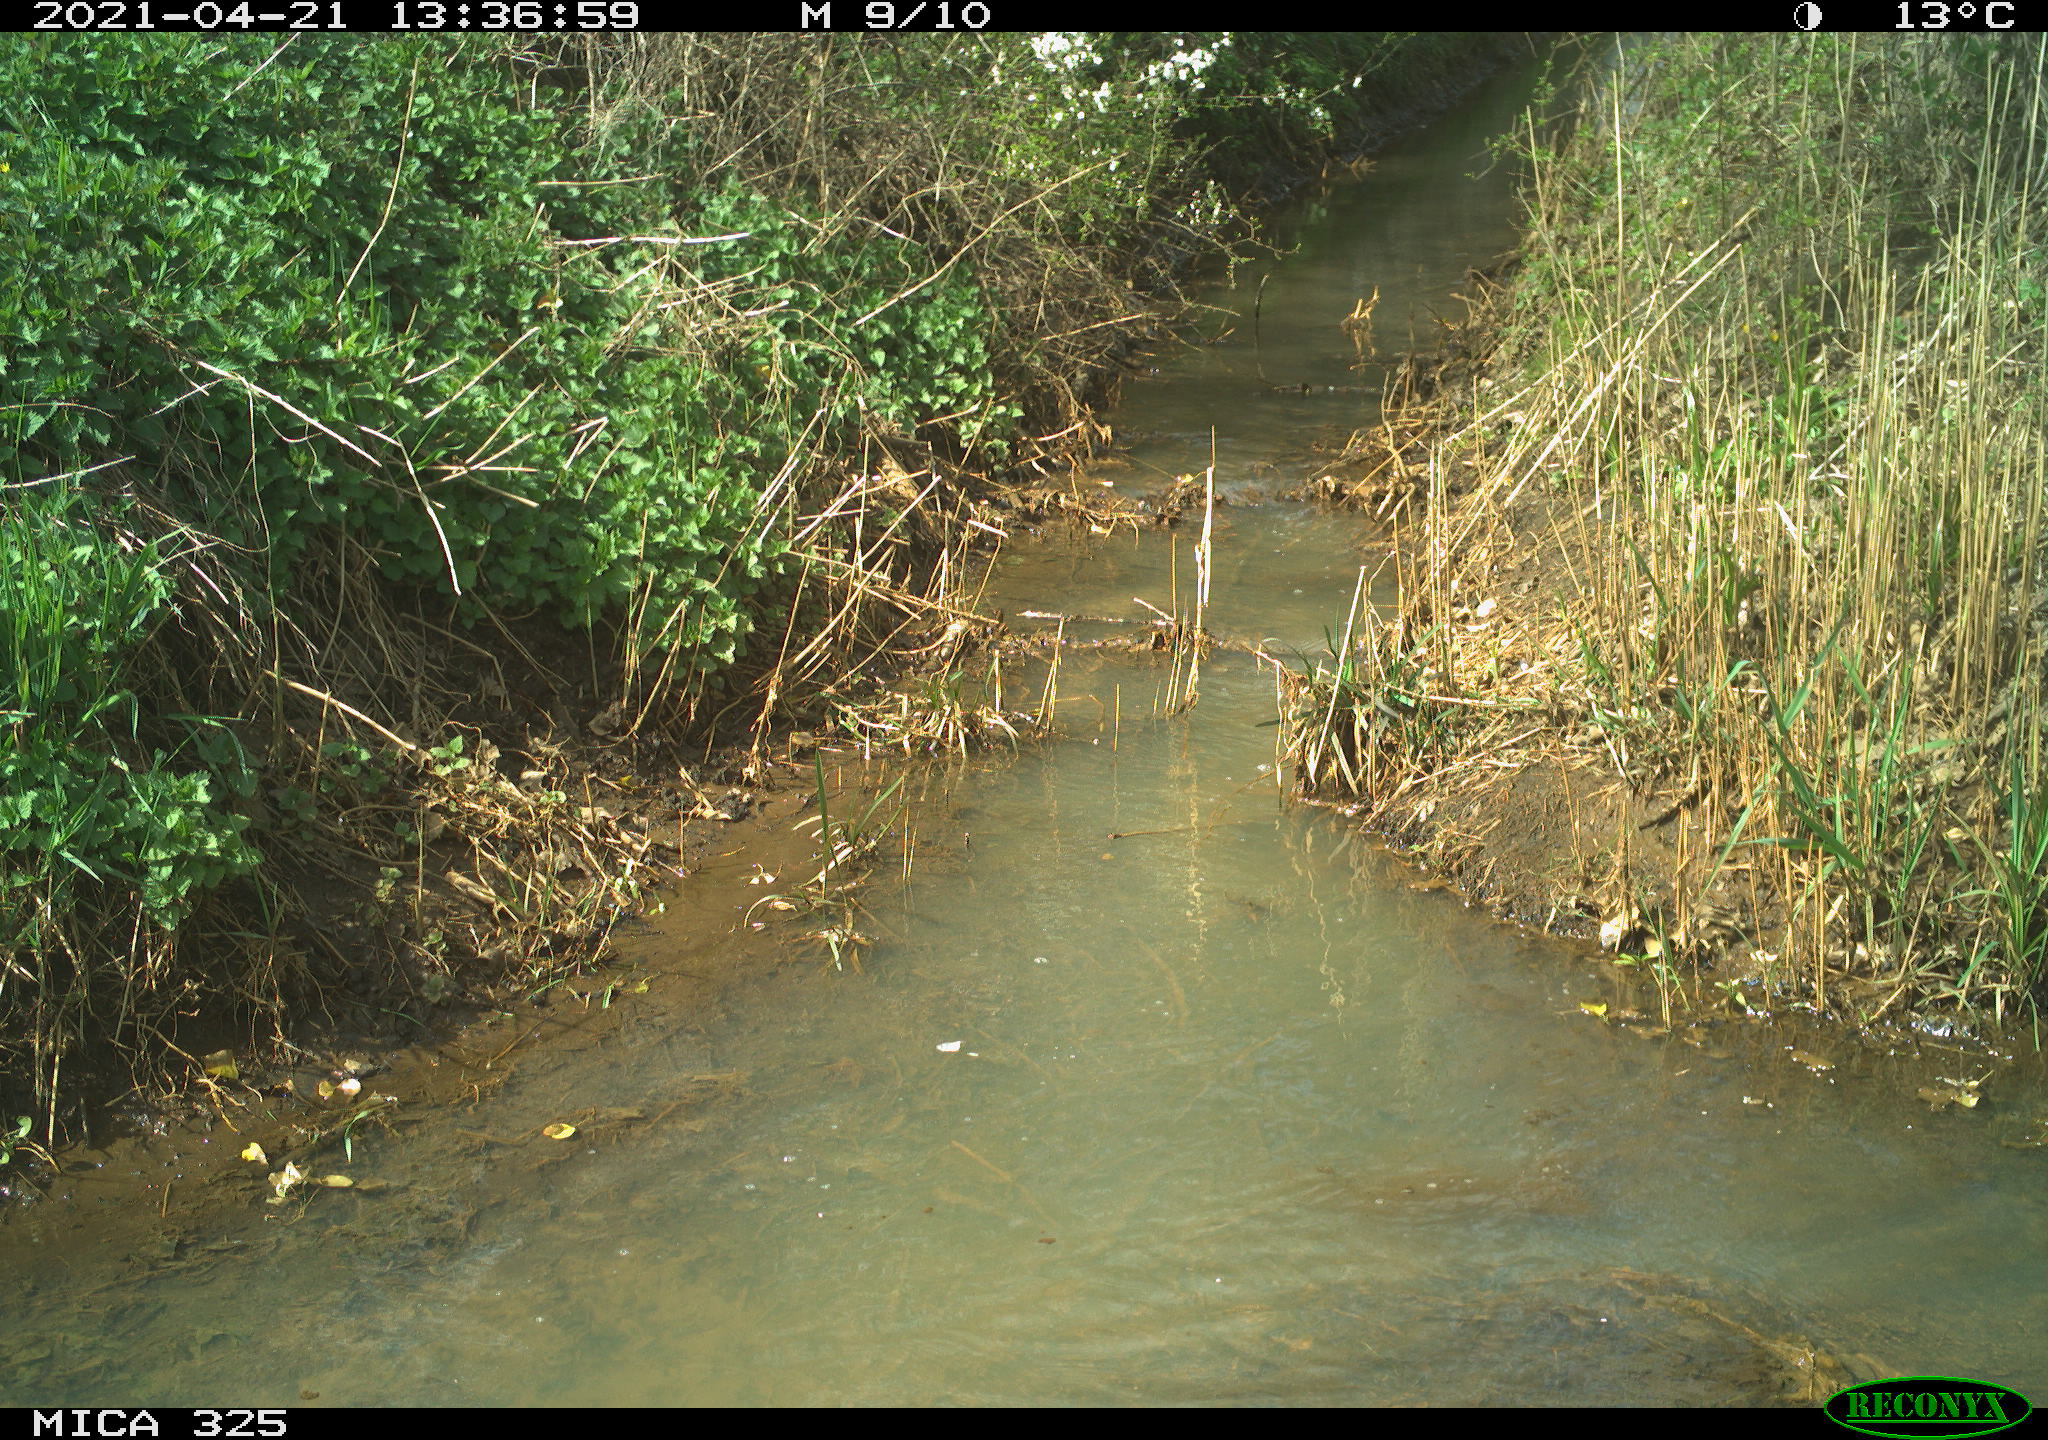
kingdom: Animalia
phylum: Chordata
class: Aves
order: Anseriformes
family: Anatidae
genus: Anas
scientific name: Anas platyrhynchos
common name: Mallard
